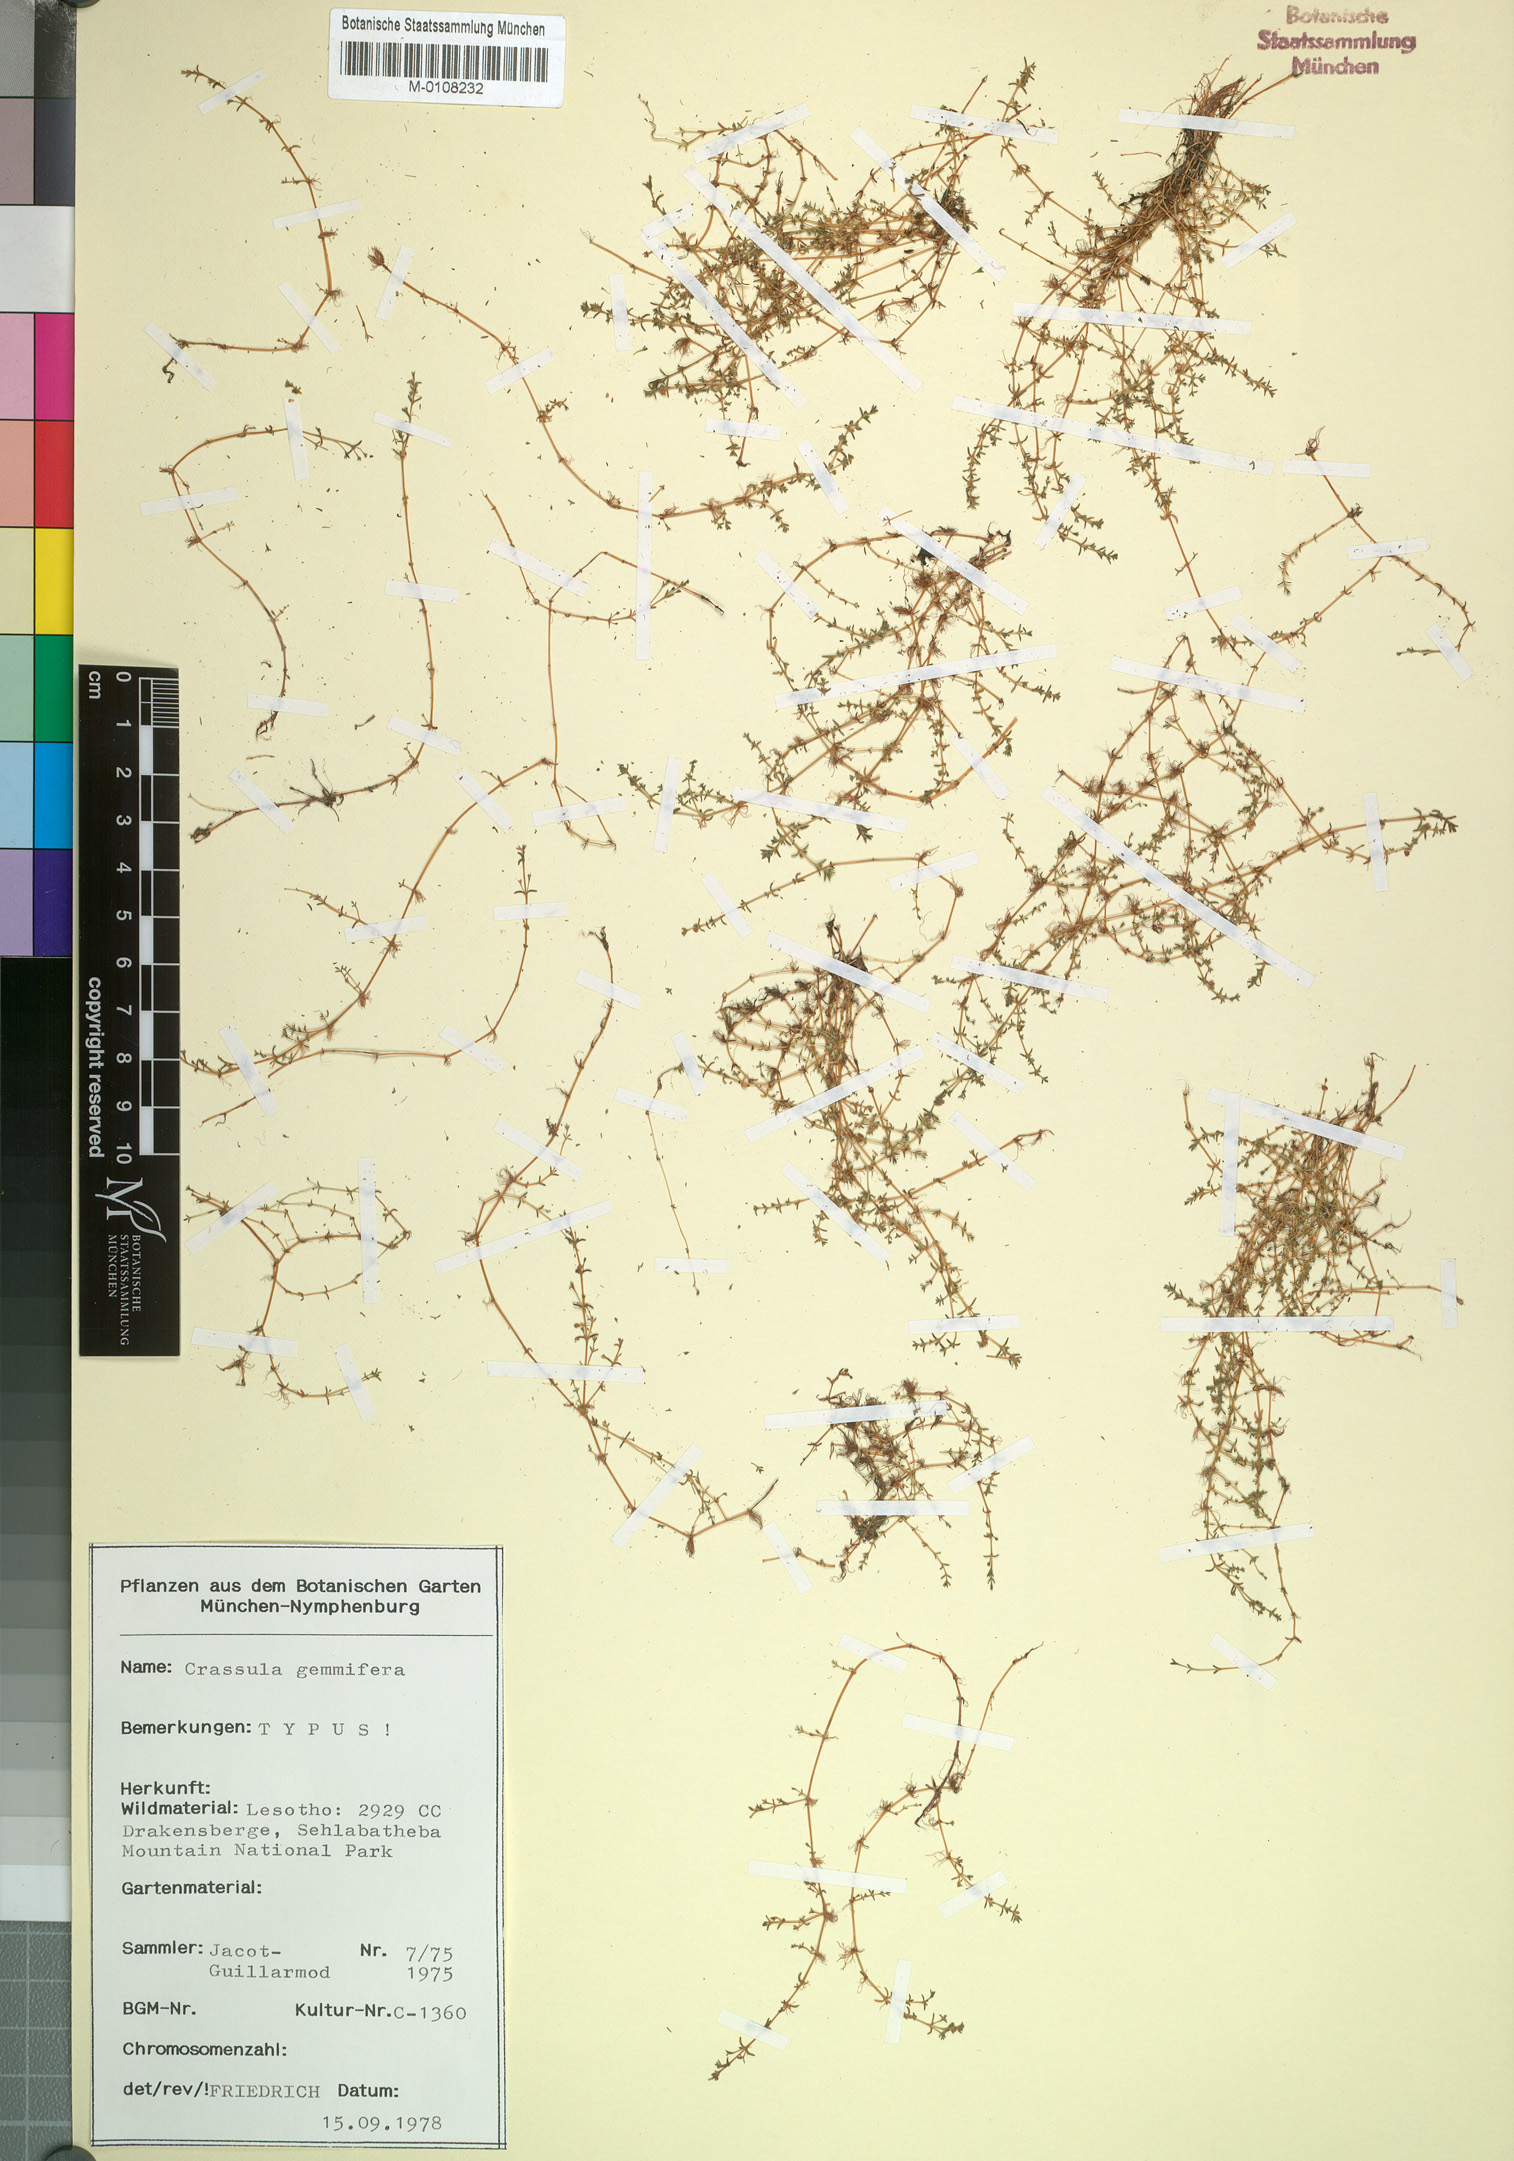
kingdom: Plantae
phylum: Tracheophyta
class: Magnoliopsida
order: Saxifragales
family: Crassulaceae
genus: Crassula
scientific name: Crassula gemmifera
